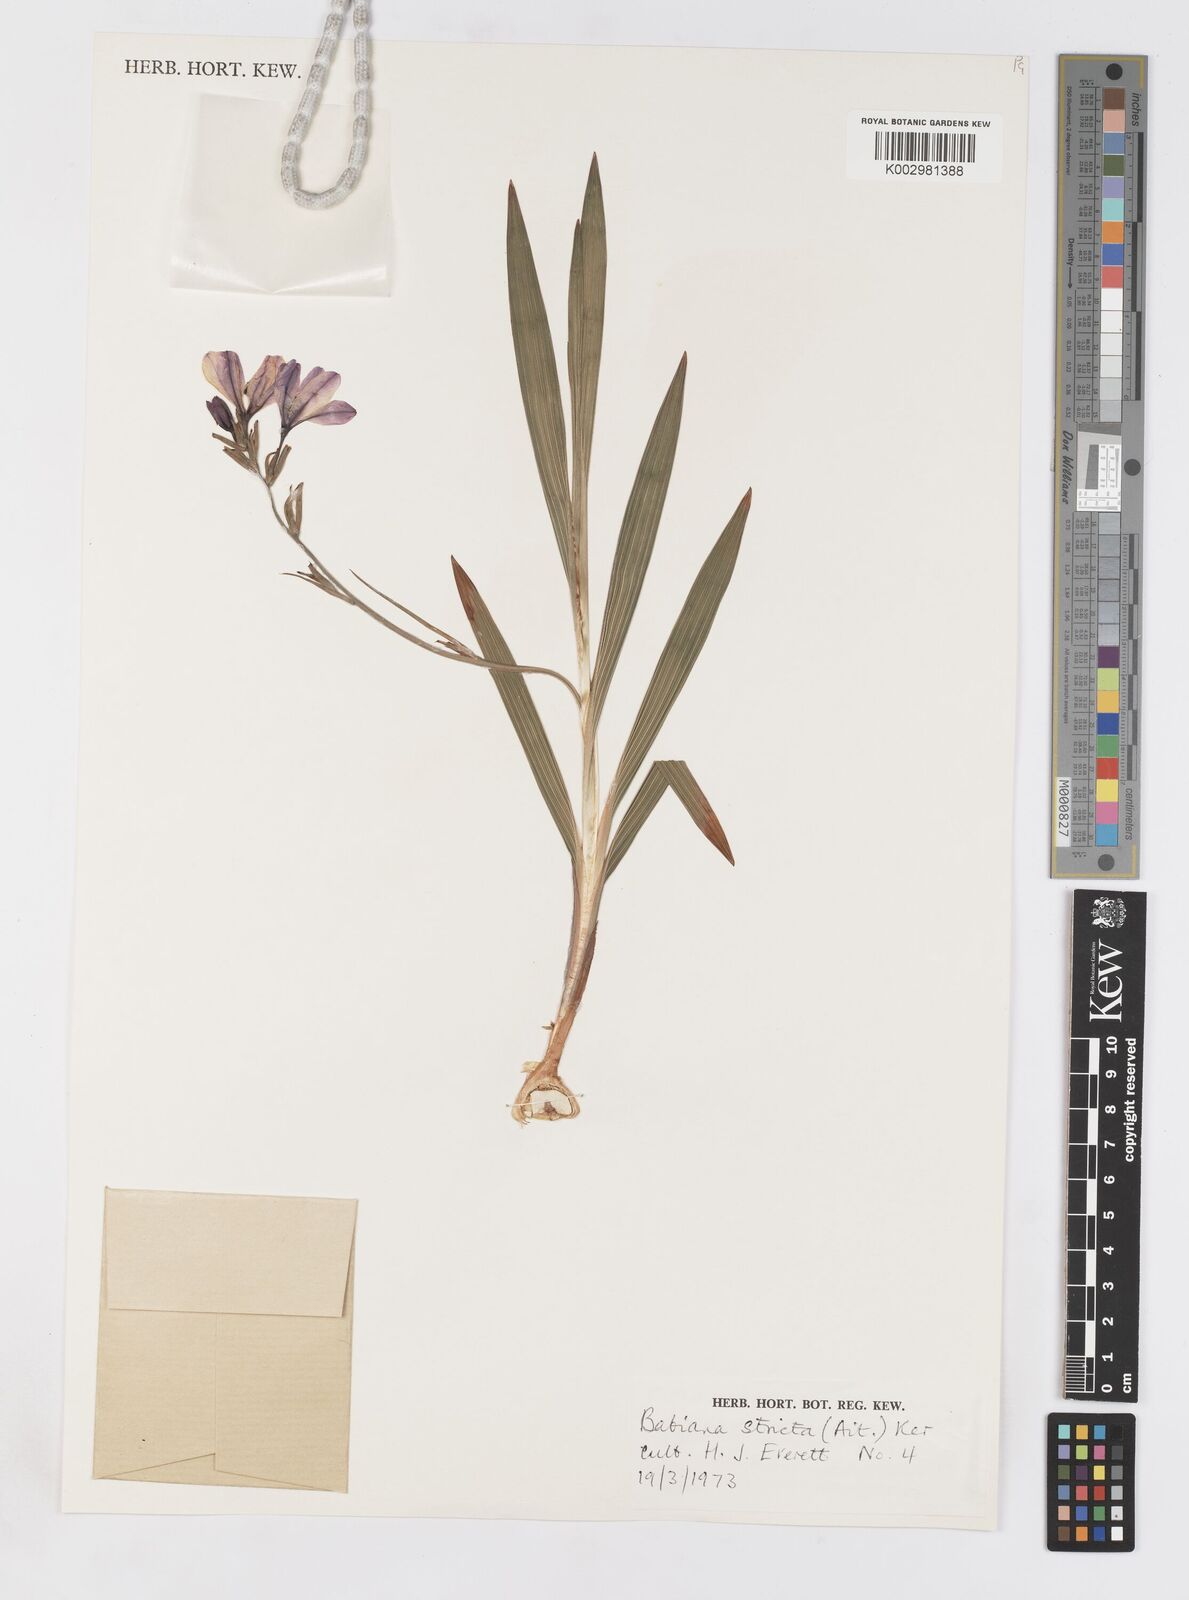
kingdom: Plantae
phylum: Tracheophyta
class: Liliopsida
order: Asparagales
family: Iridaceae
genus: Babiana
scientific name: Babiana nervosa
